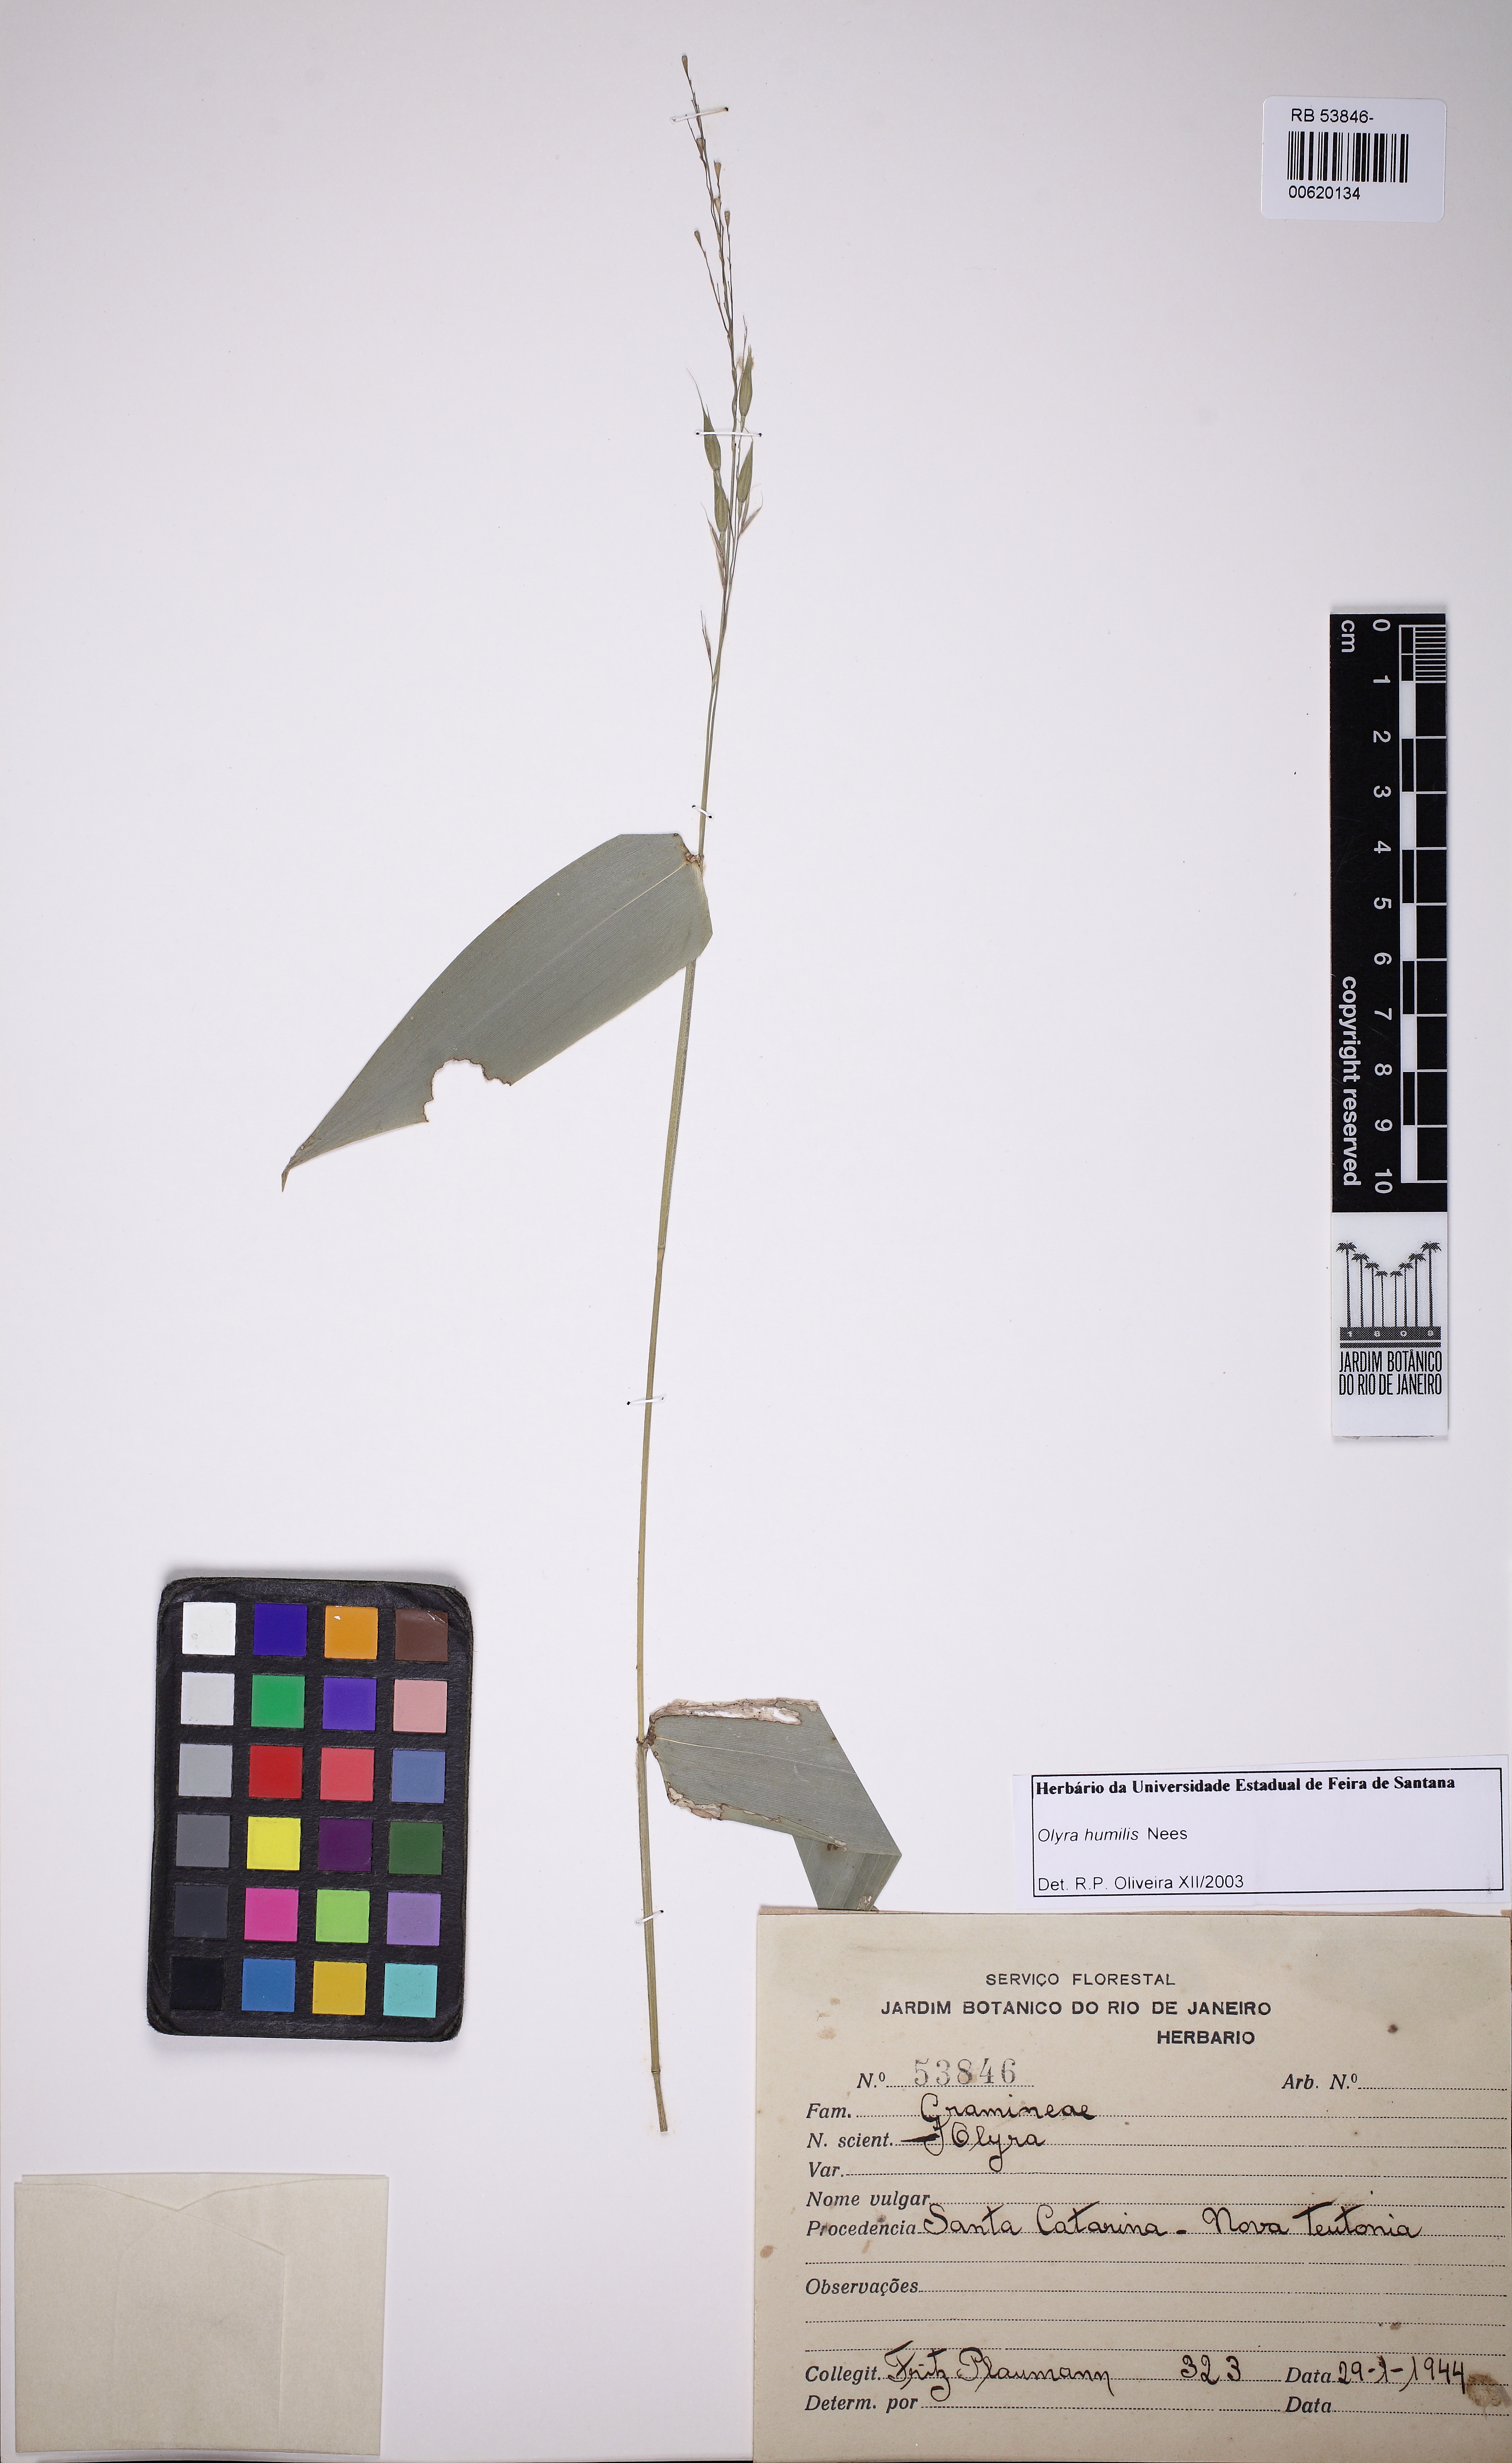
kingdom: Plantae
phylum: Tracheophyta
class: Liliopsida
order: Poales
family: Poaceae
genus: Olyra
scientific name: Olyra humilis
